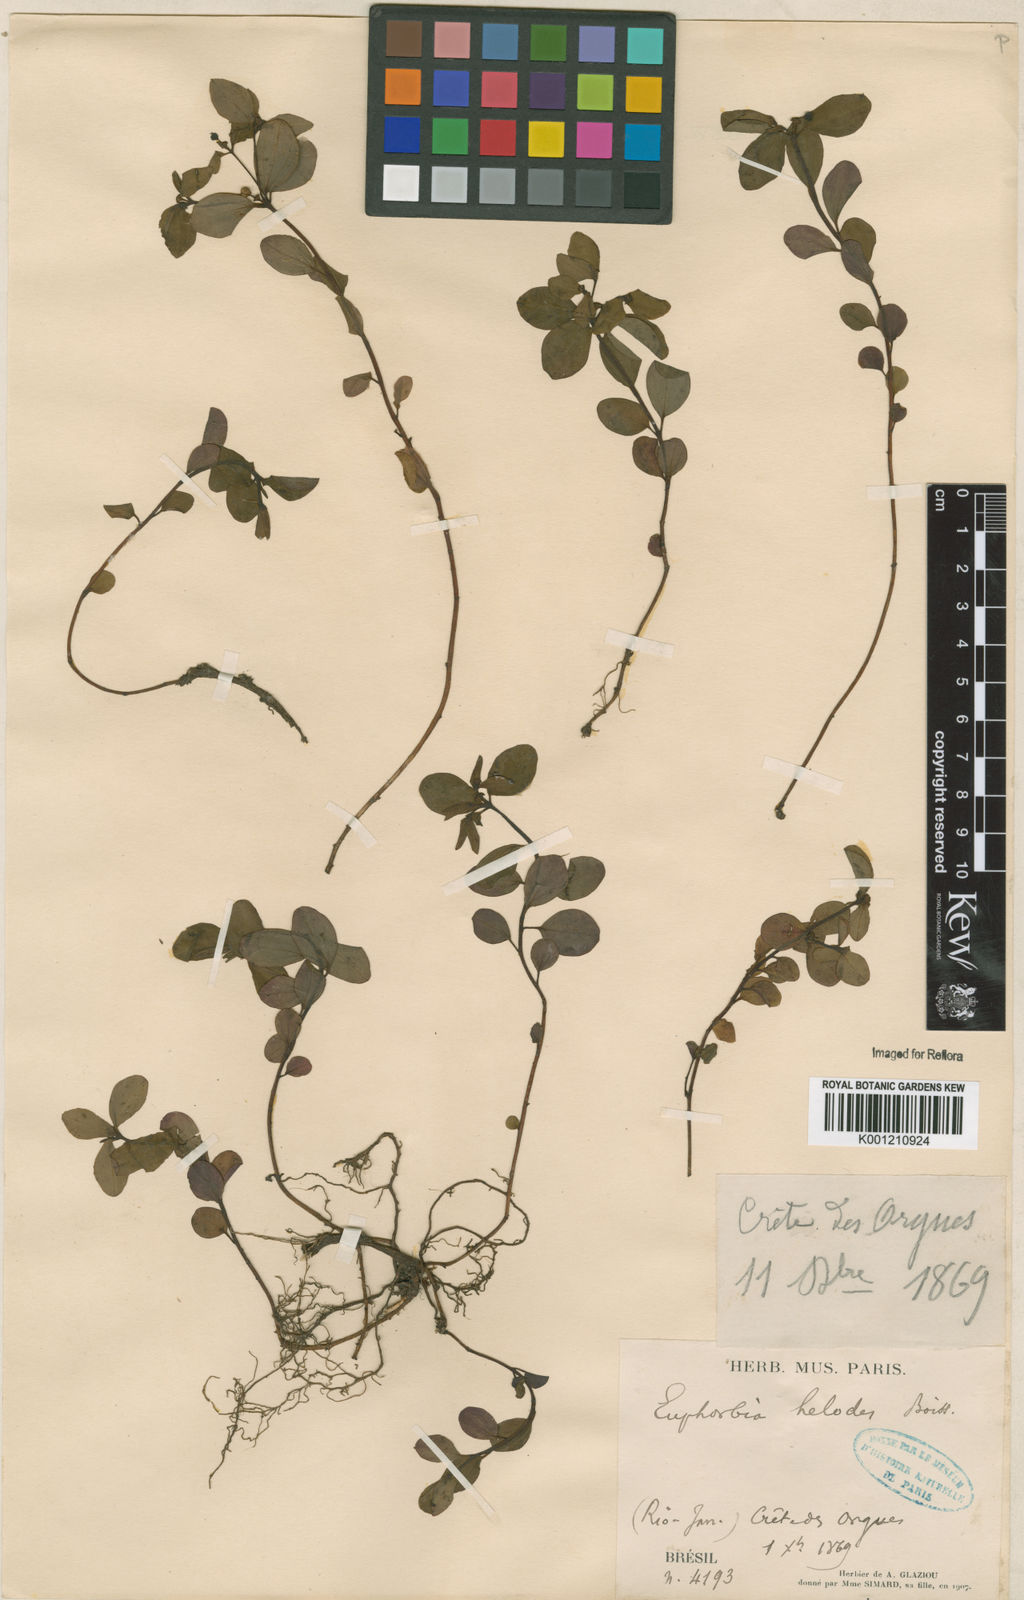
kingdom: Plantae
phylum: Tracheophyta
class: Magnoliopsida
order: Malpighiales
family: Euphorbiaceae
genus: Euphorbia
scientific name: Euphorbia elodes
